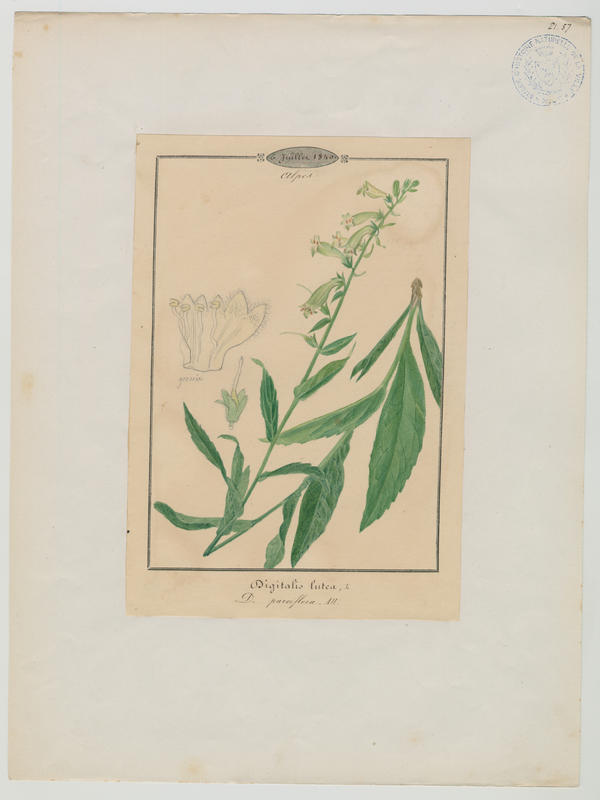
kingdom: Plantae
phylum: Tracheophyta
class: Magnoliopsida
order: Lamiales
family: Plantaginaceae
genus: Digitalis
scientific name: Digitalis lutea
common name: Straw foxglove
